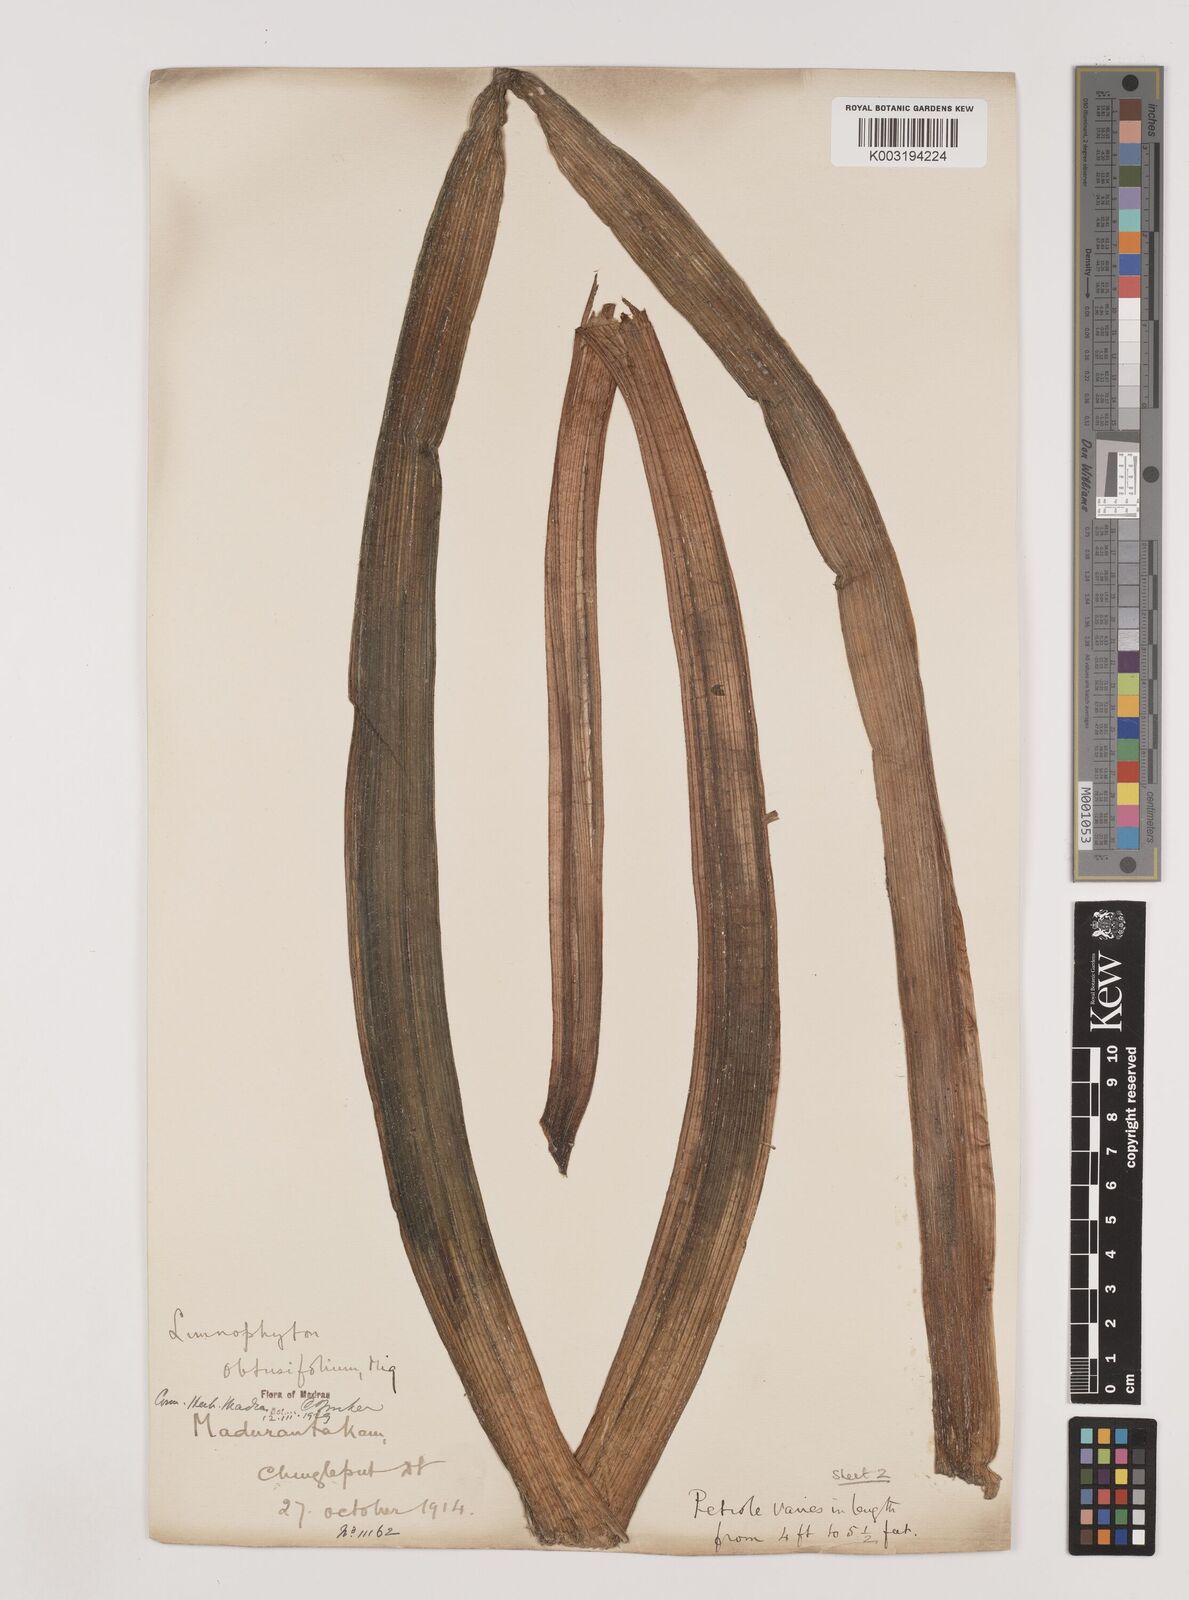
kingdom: Plantae
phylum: Tracheophyta
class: Liliopsida
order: Alismatales
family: Alismataceae
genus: Limnophyton
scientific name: Limnophyton obtusifolium
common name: Arrow head
